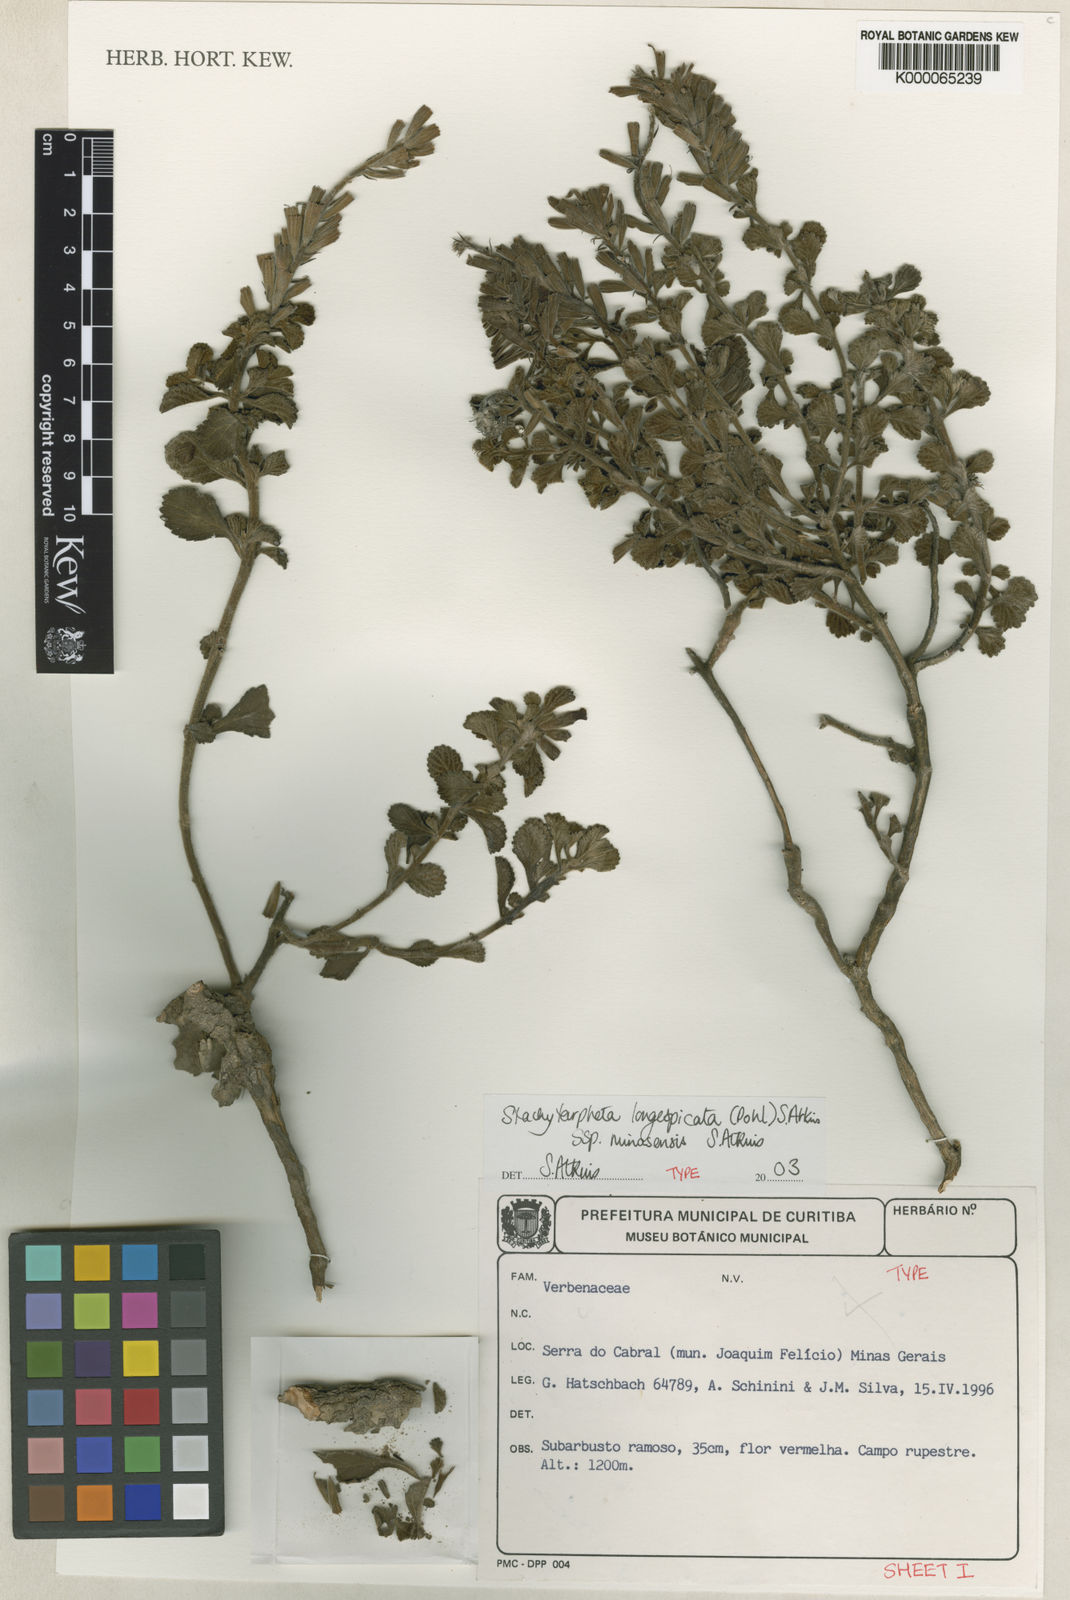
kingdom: Plantae
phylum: Tracheophyta
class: Magnoliopsida
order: Lamiales
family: Verbenaceae
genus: Stachytarpheta
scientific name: Stachytarpheta longispicata
